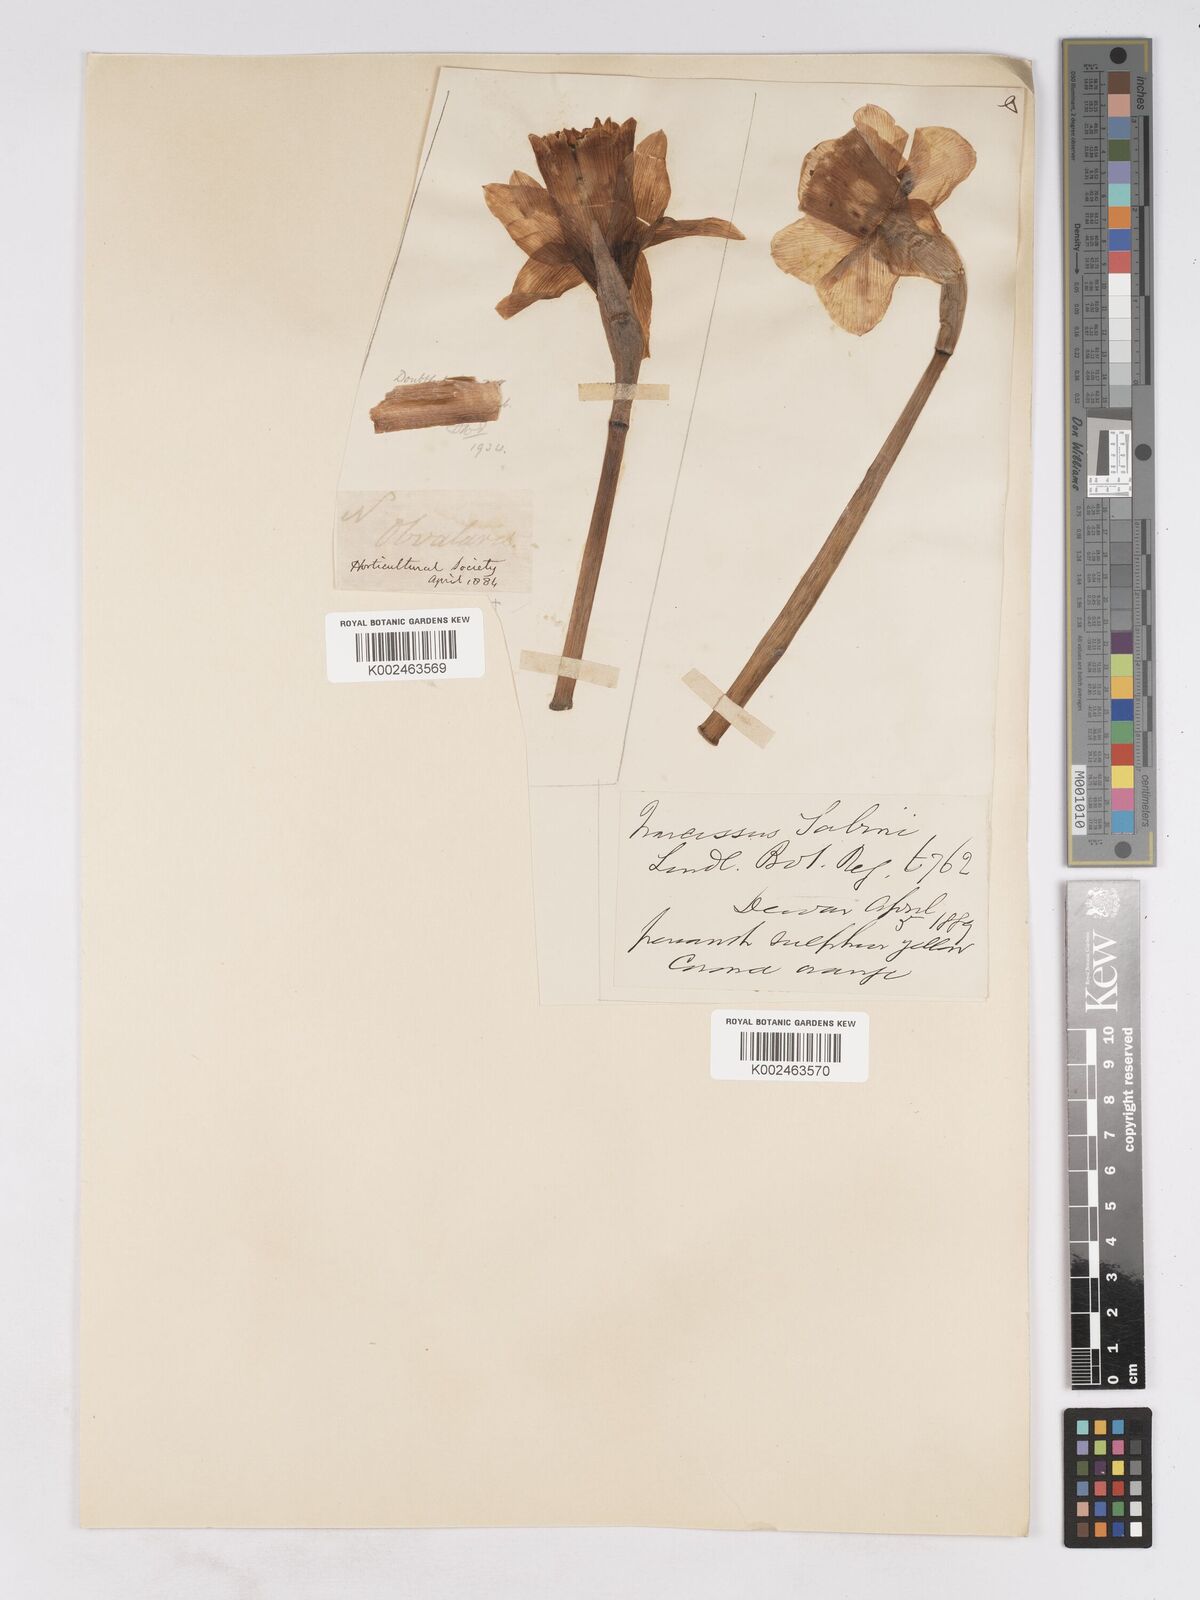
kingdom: Plantae
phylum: Tracheophyta
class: Liliopsida
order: Asparagales
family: Amaryllidaceae
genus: Narcissus
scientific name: Narcissus pseudonarcissus
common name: Daffodil
